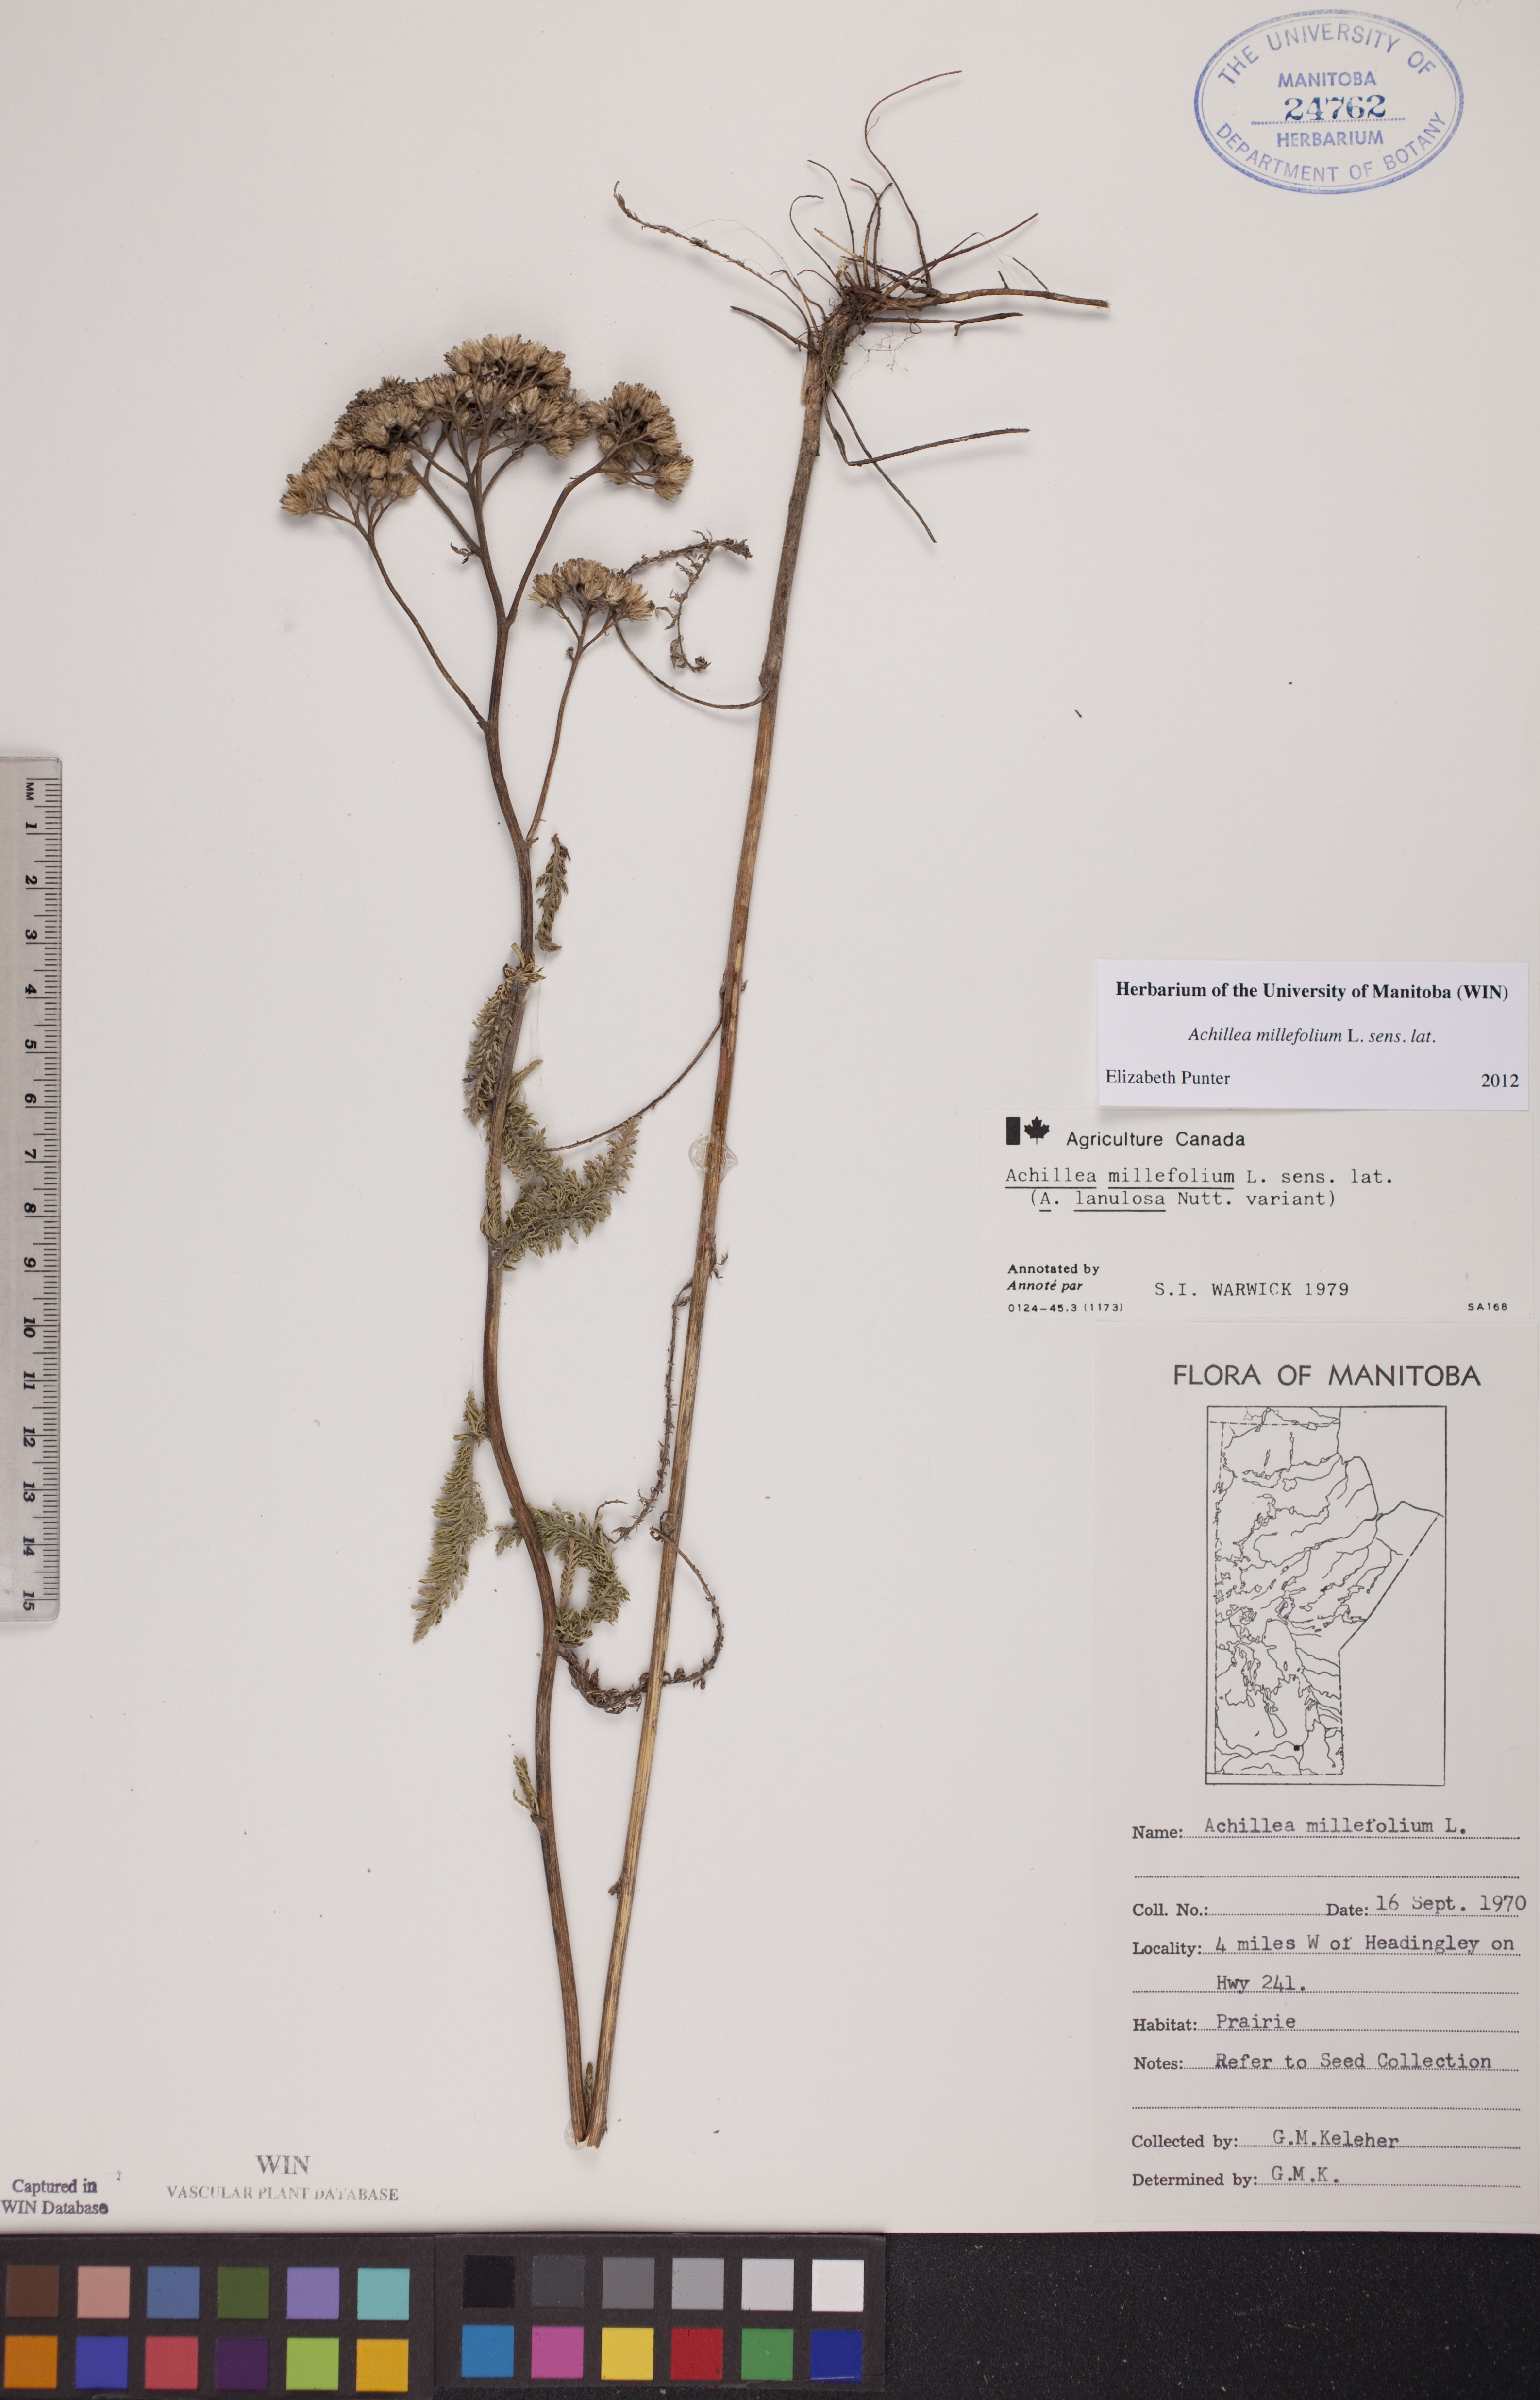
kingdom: Plantae
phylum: Tracheophyta
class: Magnoliopsida
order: Asterales
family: Asteraceae
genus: Achillea
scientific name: Achillea millefolium
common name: Yarrow
